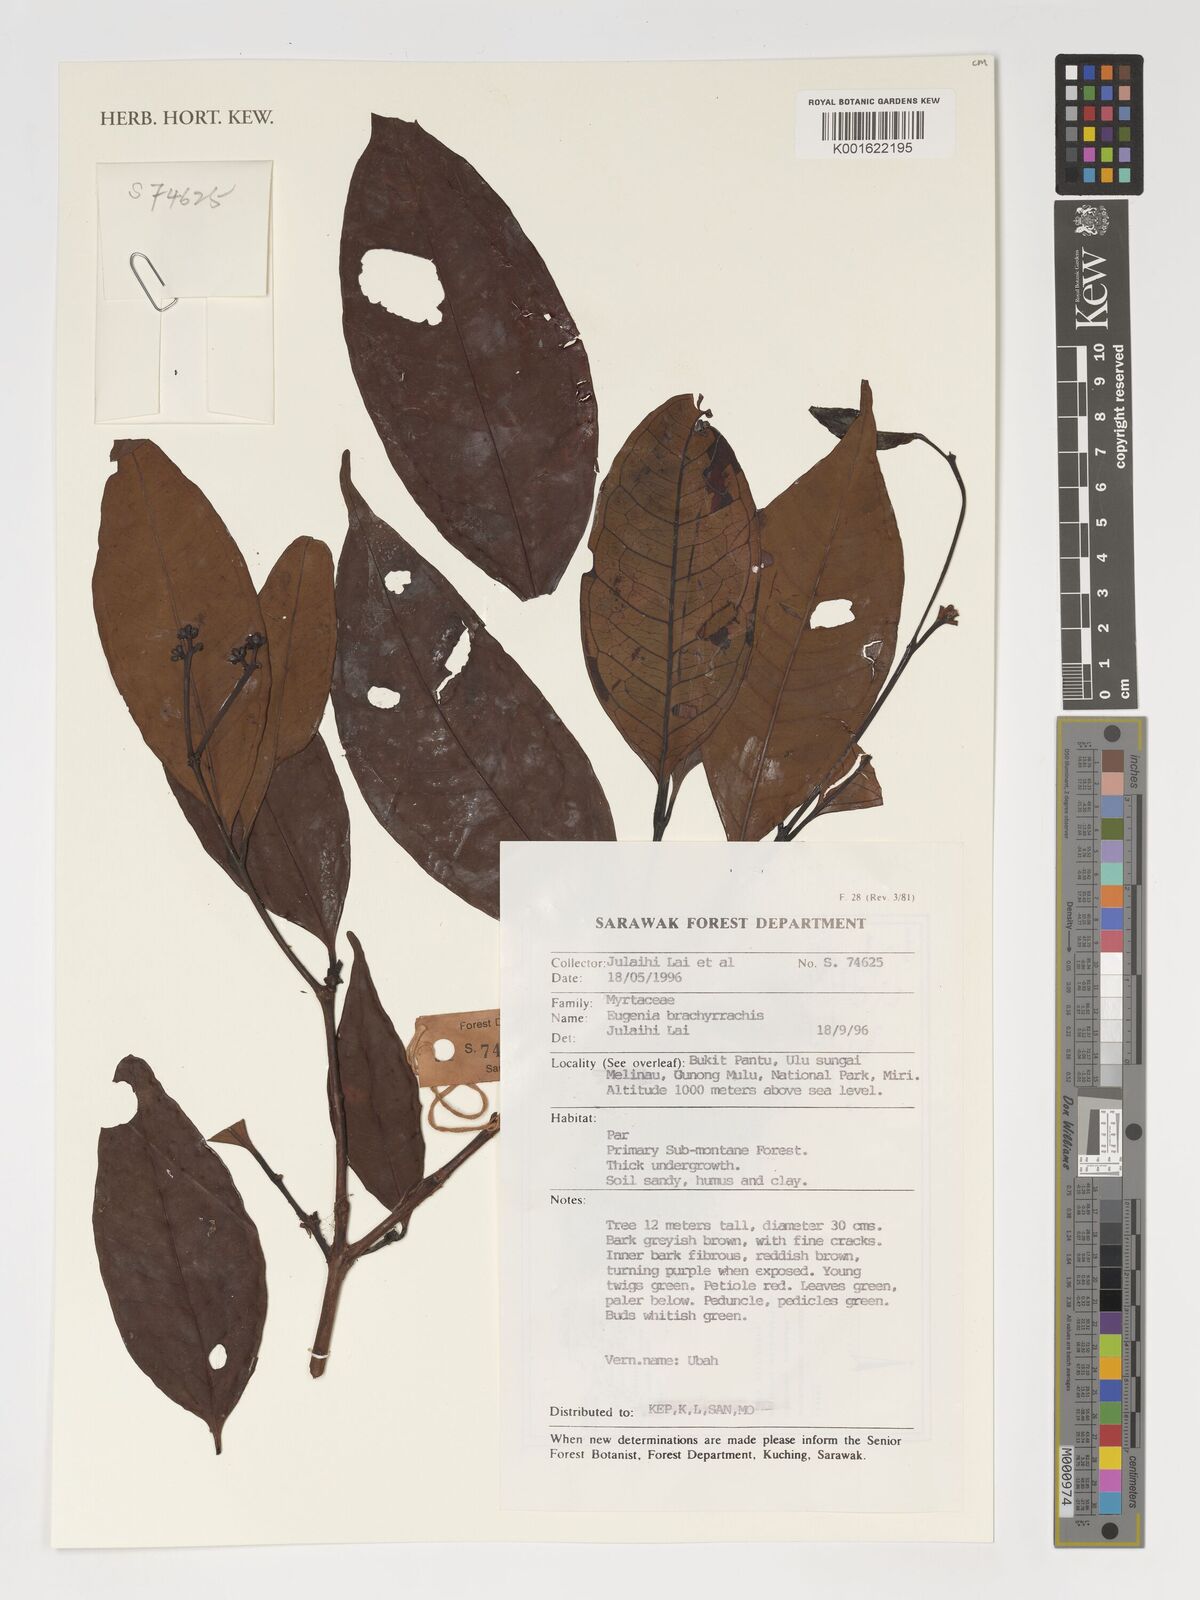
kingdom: Plantae
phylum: Tracheophyta
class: Magnoliopsida
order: Myrtales
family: Myrtaceae
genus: Eugenia
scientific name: Eugenia
